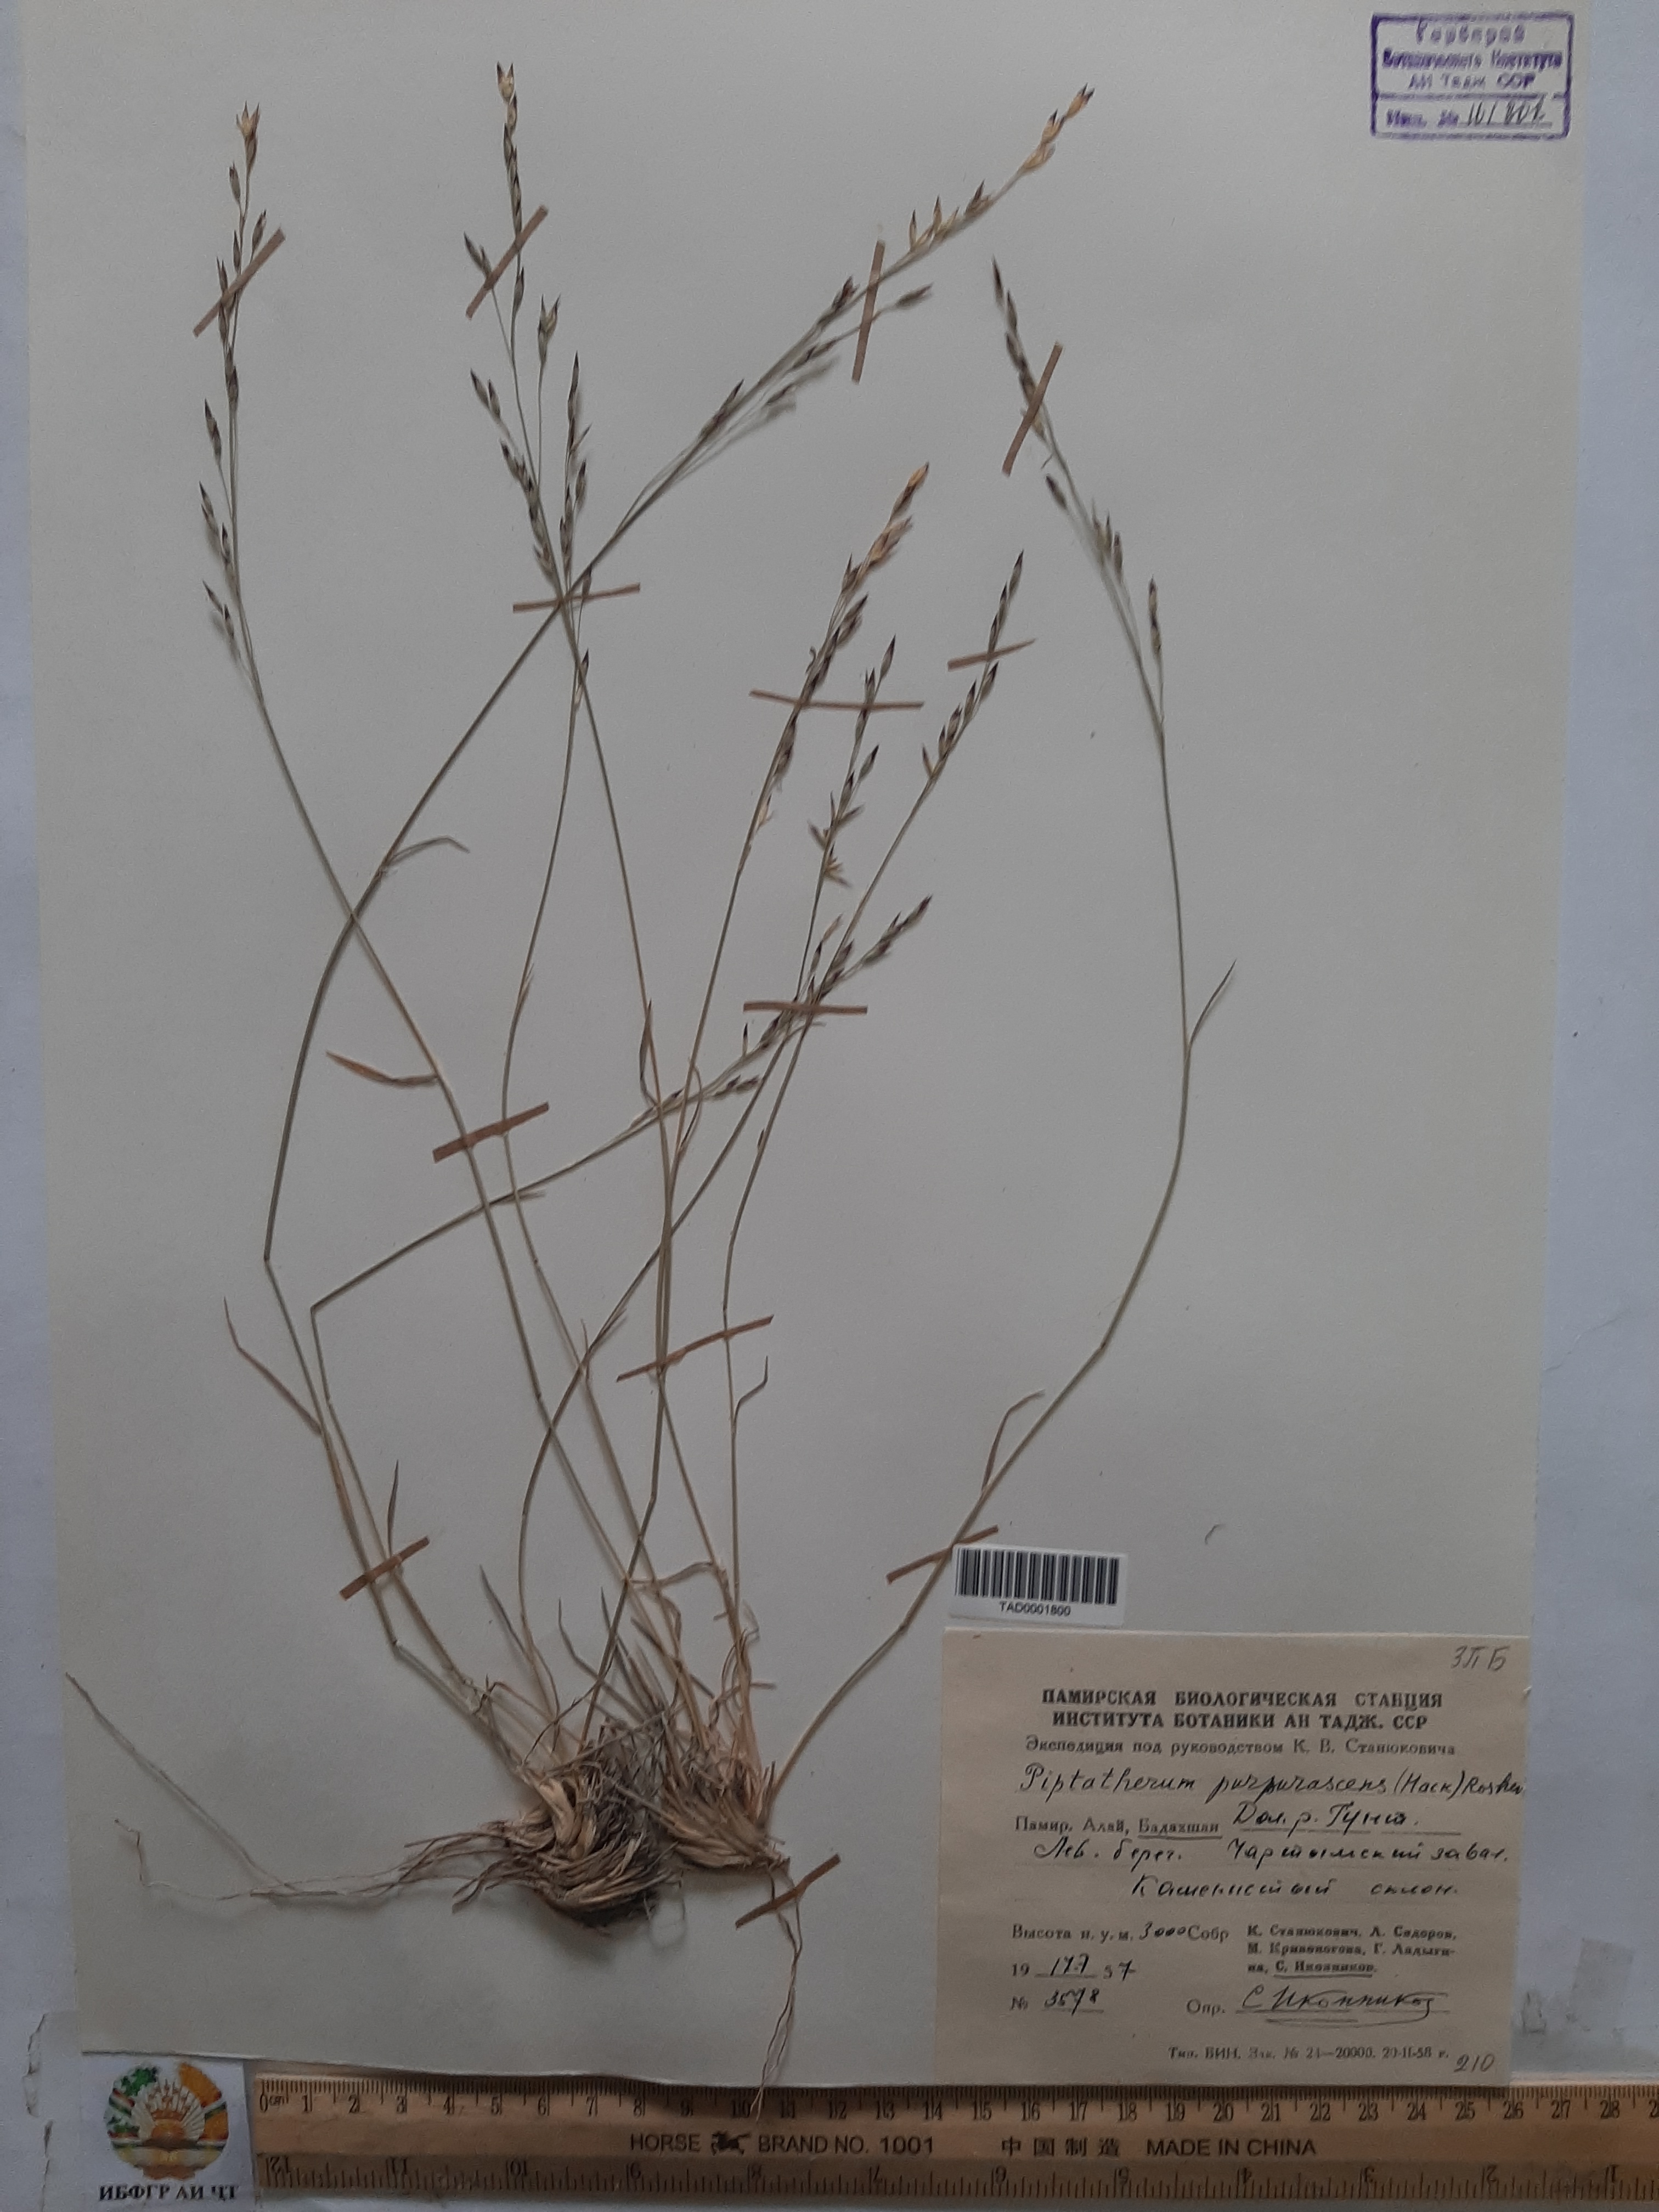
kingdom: Plantae
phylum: Tracheophyta
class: Liliopsida
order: Poales
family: Poaceae
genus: Piptatherum
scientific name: Piptatherum purpurascens
